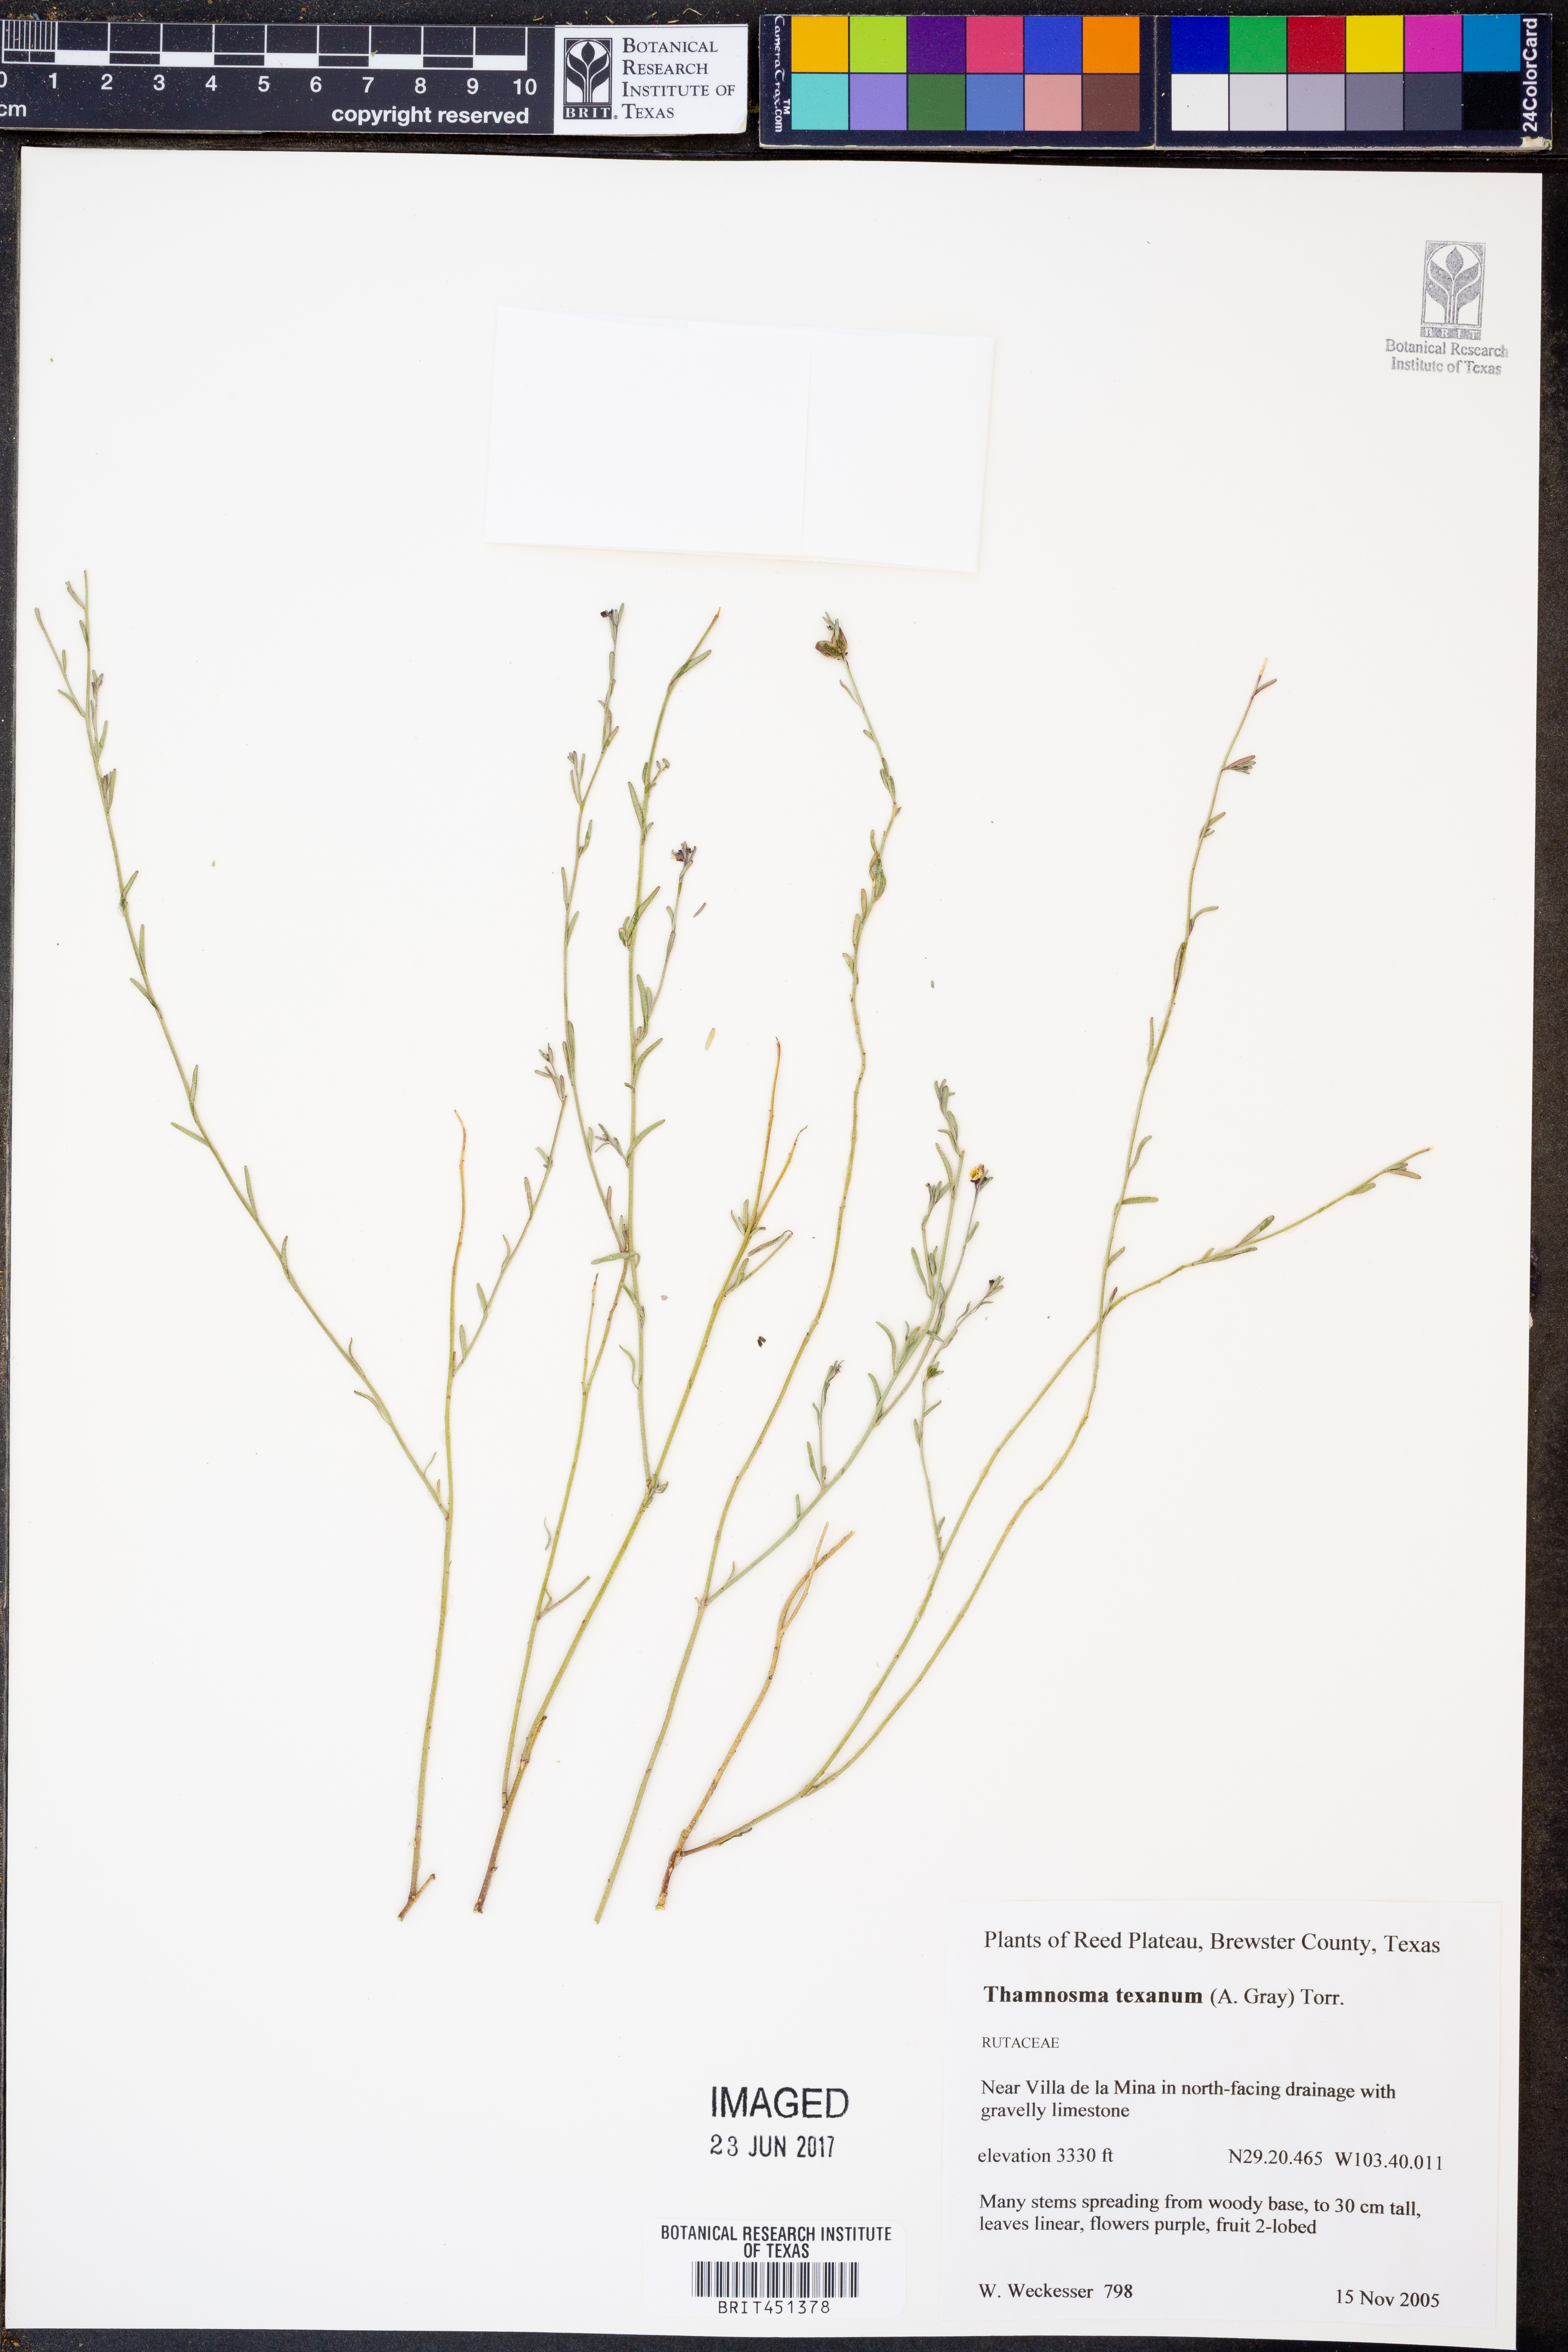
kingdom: Plantae
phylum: Tracheophyta
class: Magnoliopsida
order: Sapindales
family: Rutaceae
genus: Thamnosma
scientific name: Thamnosma texana
